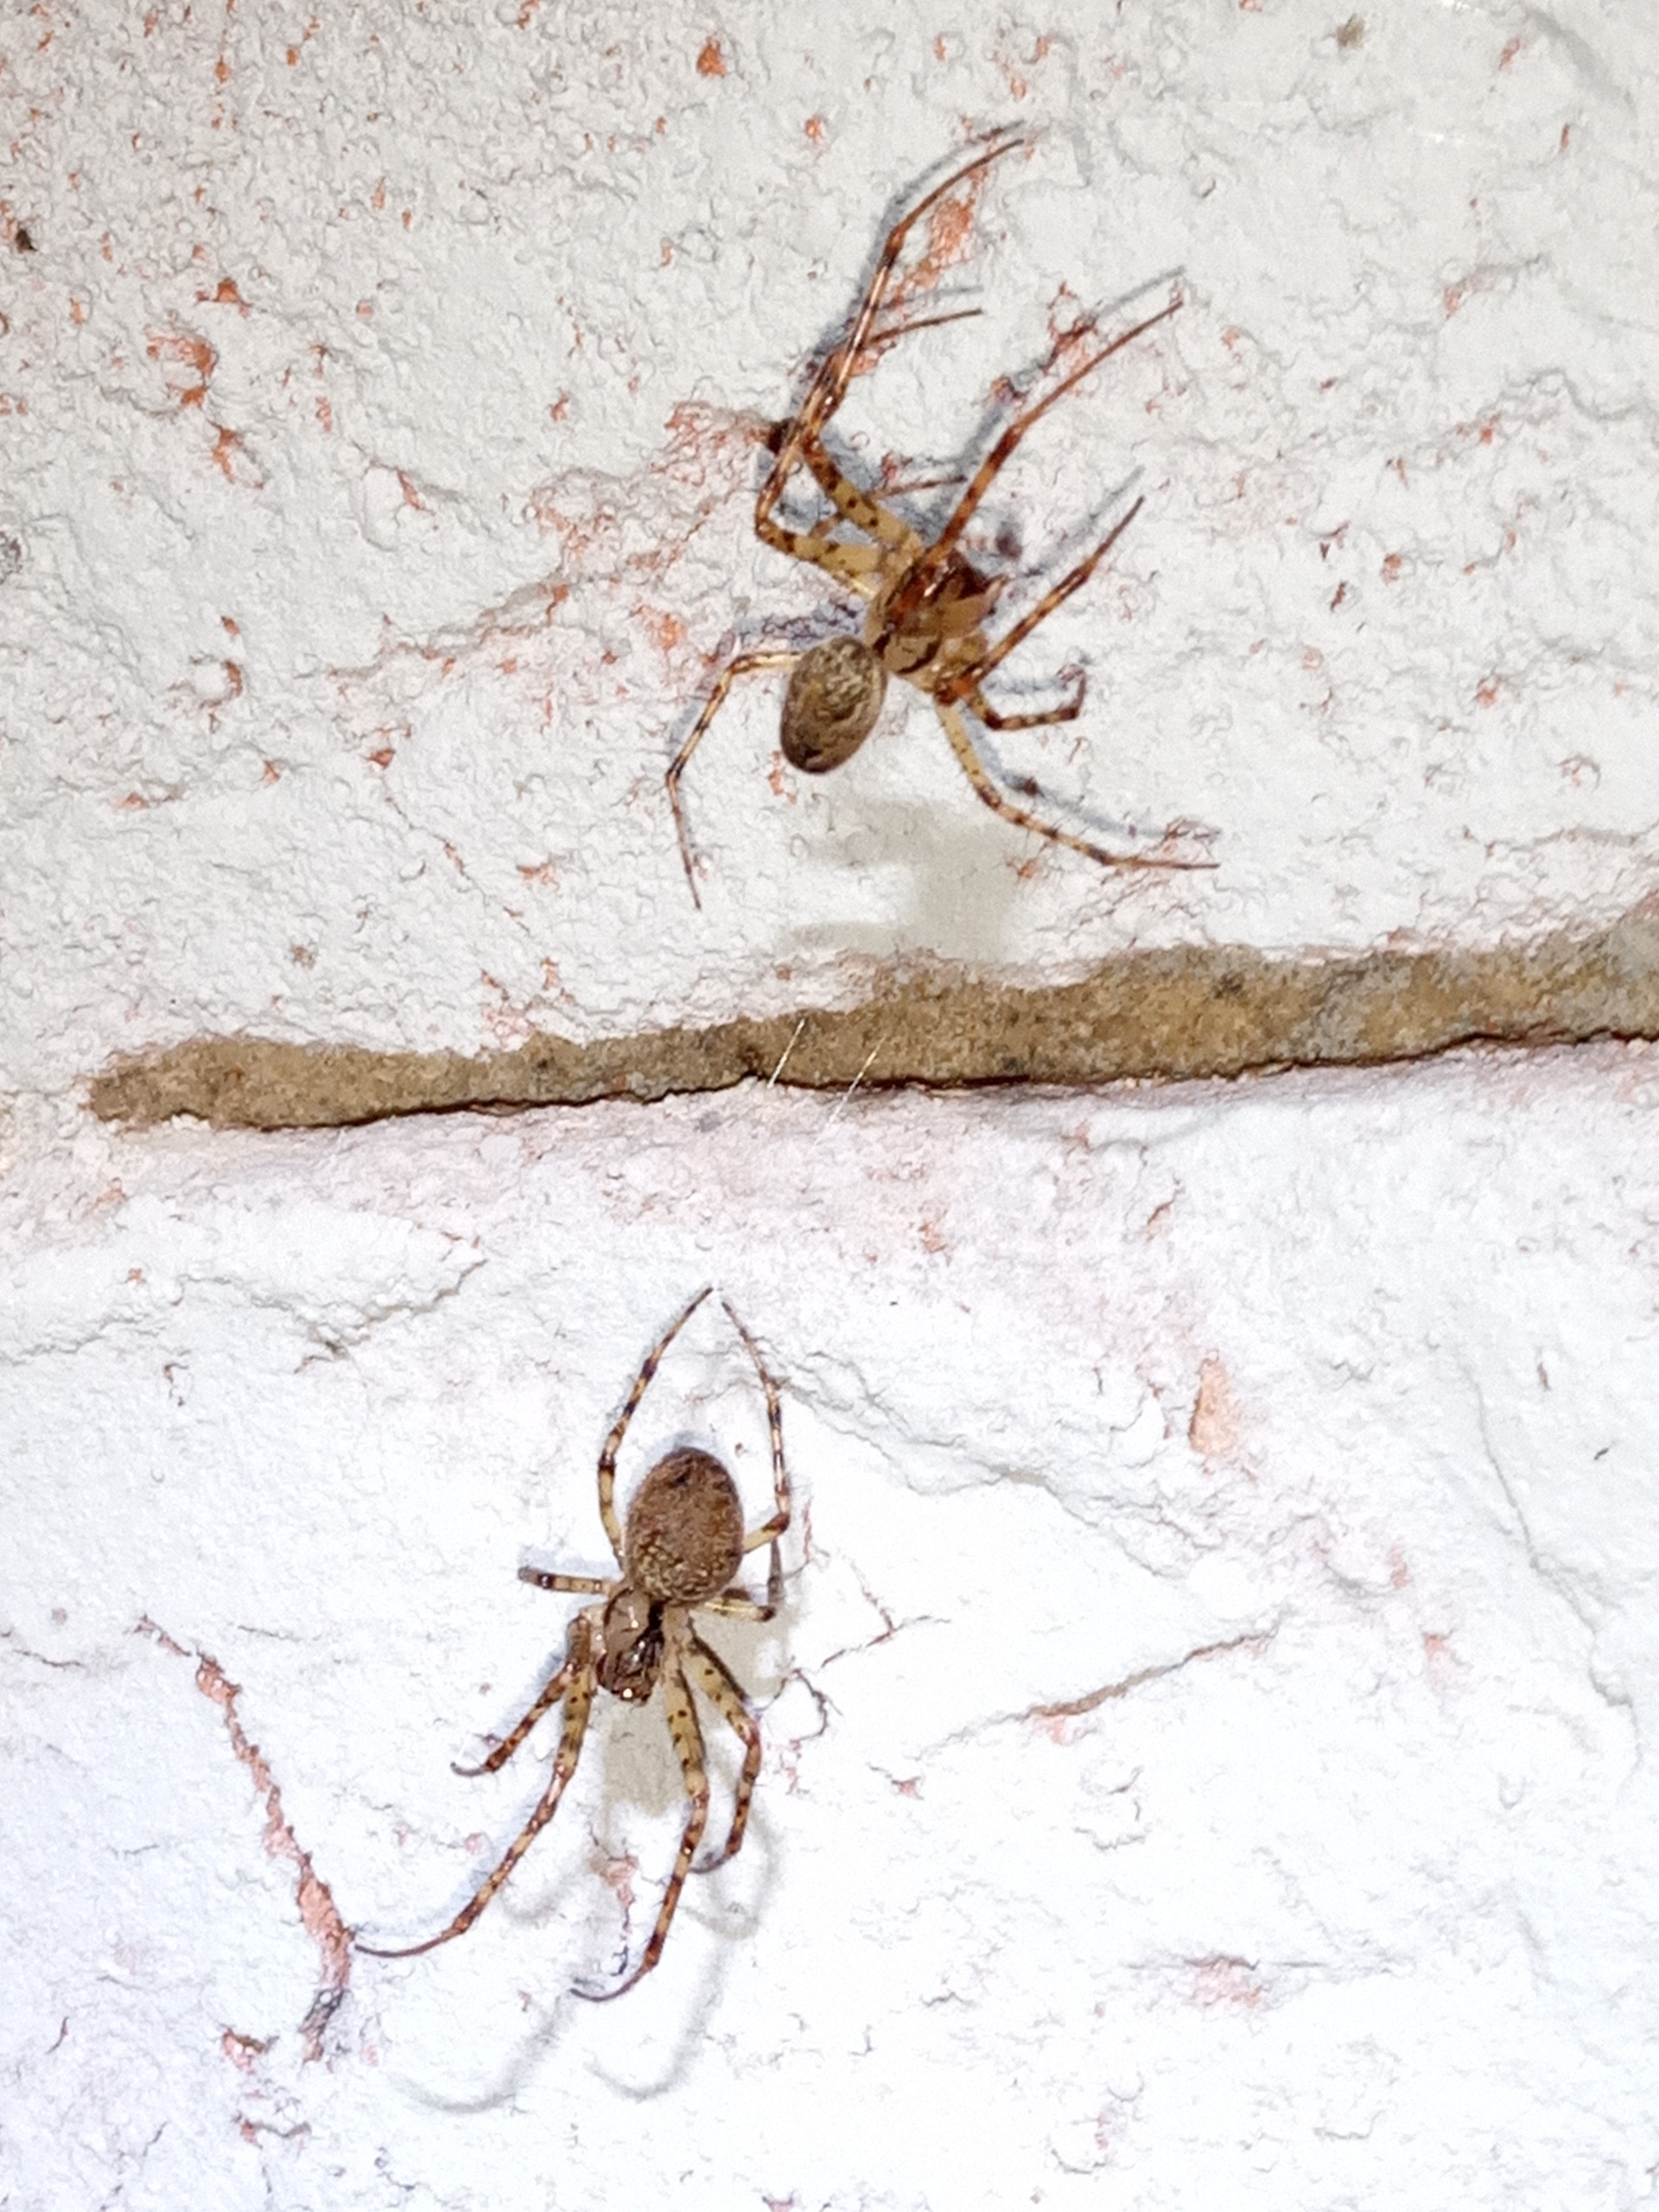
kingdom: Animalia
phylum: Arthropoda
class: Arachnida
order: Araneae
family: Tetragnathidae
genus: Metellina
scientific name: Metellina merianae
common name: Skyggehjulspinder
